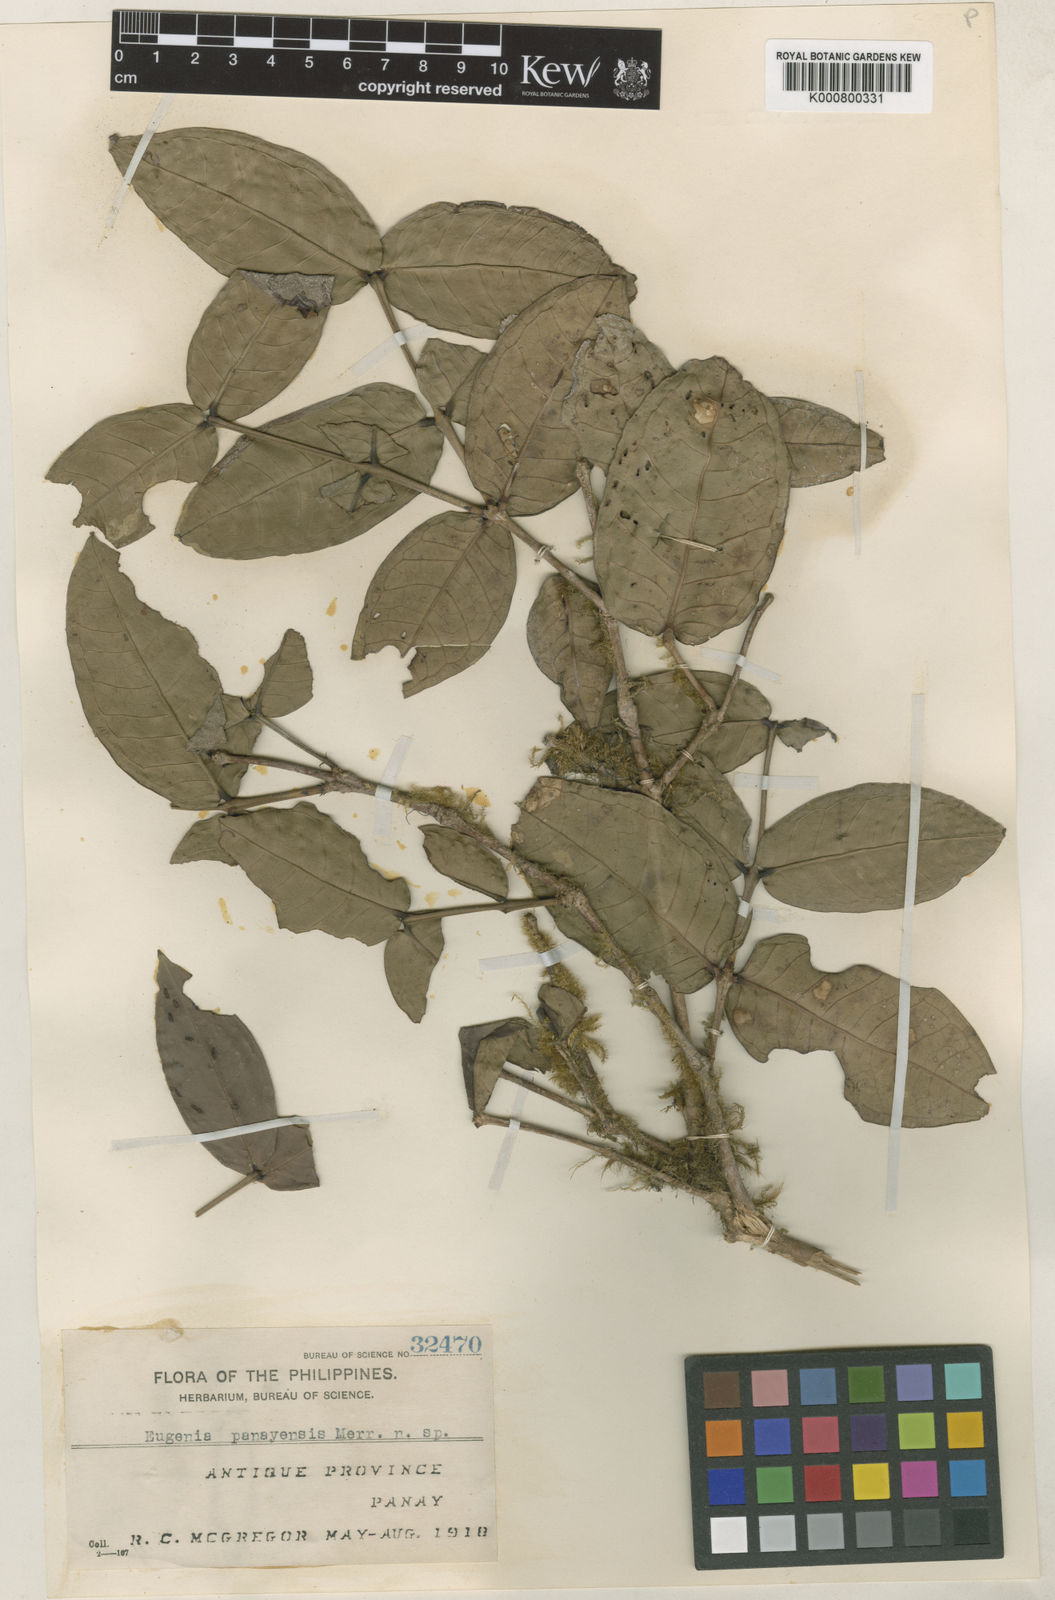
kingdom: Plantae
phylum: Tracheophyta
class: Magnoliopsida
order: Myrtales
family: Myrtaceae
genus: Syzygium
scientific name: Syzygium panayense
